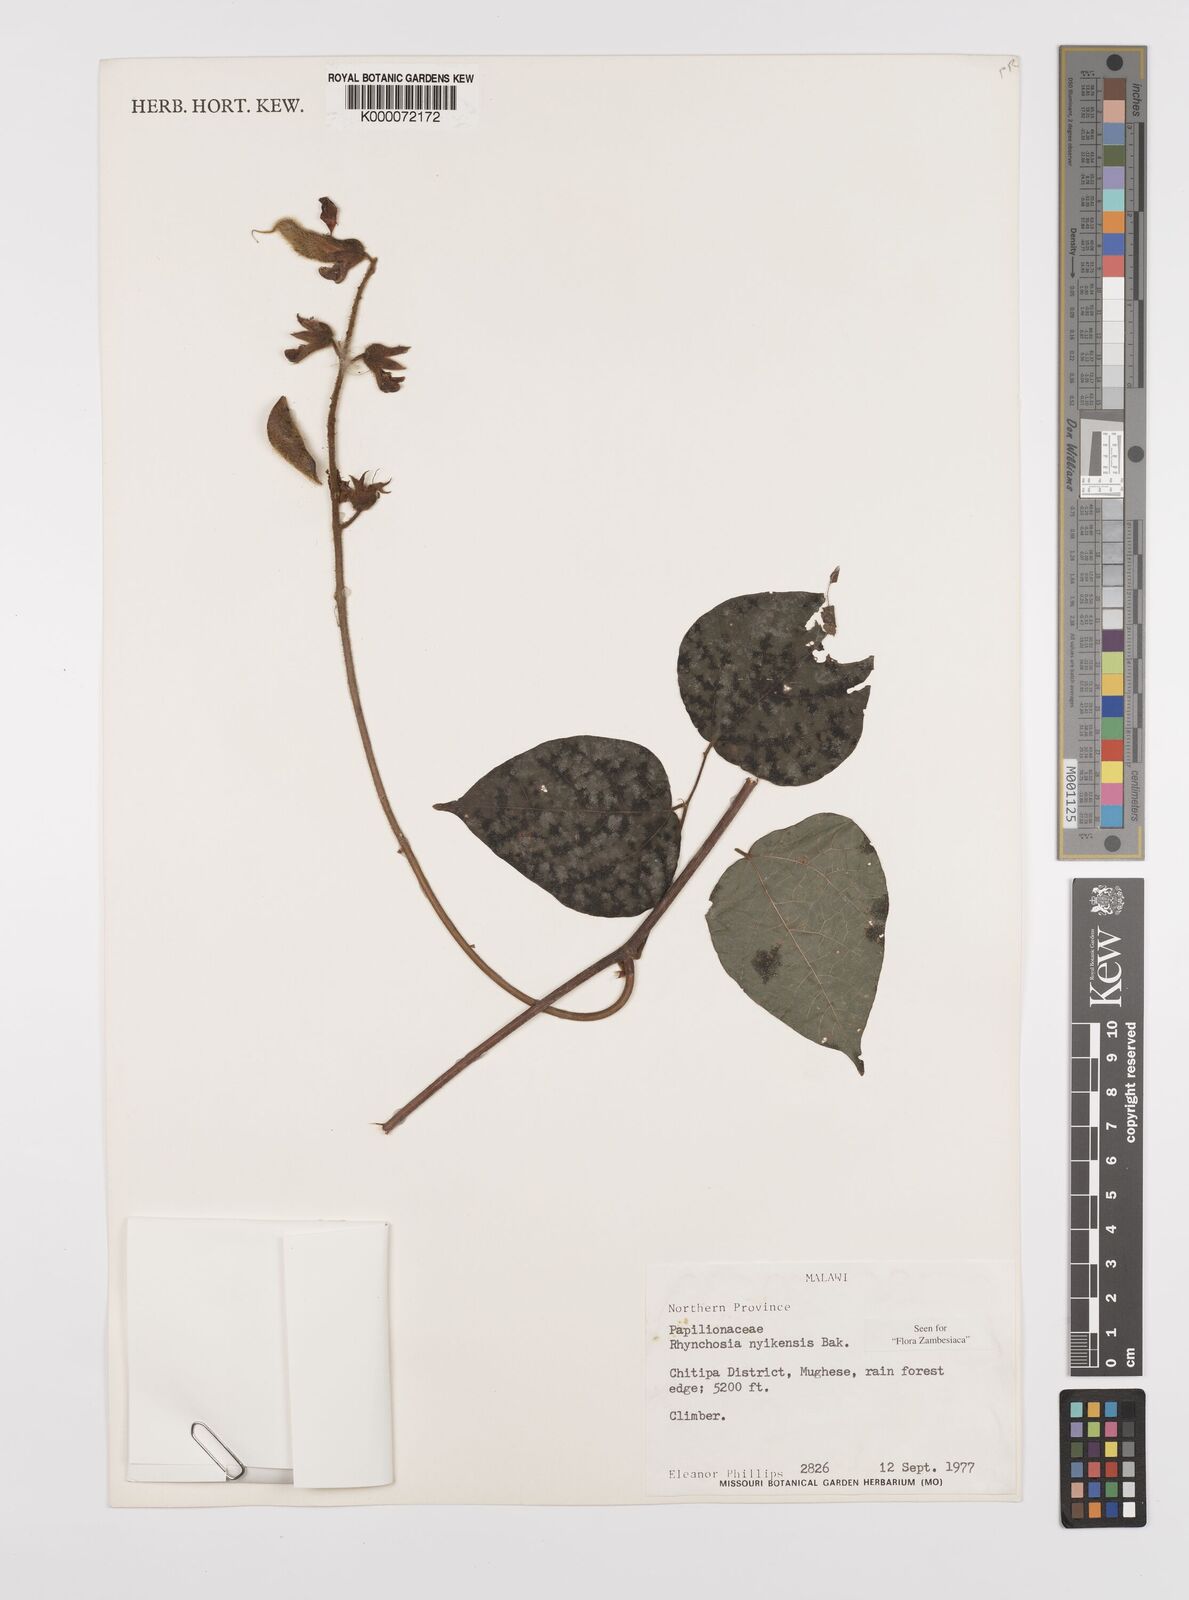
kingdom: Plantae
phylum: Tracheophyta
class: Magnoliopsida
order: Fabales
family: Fabaceae
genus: Rhynchosia
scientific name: Rhynchosia nyikensis
